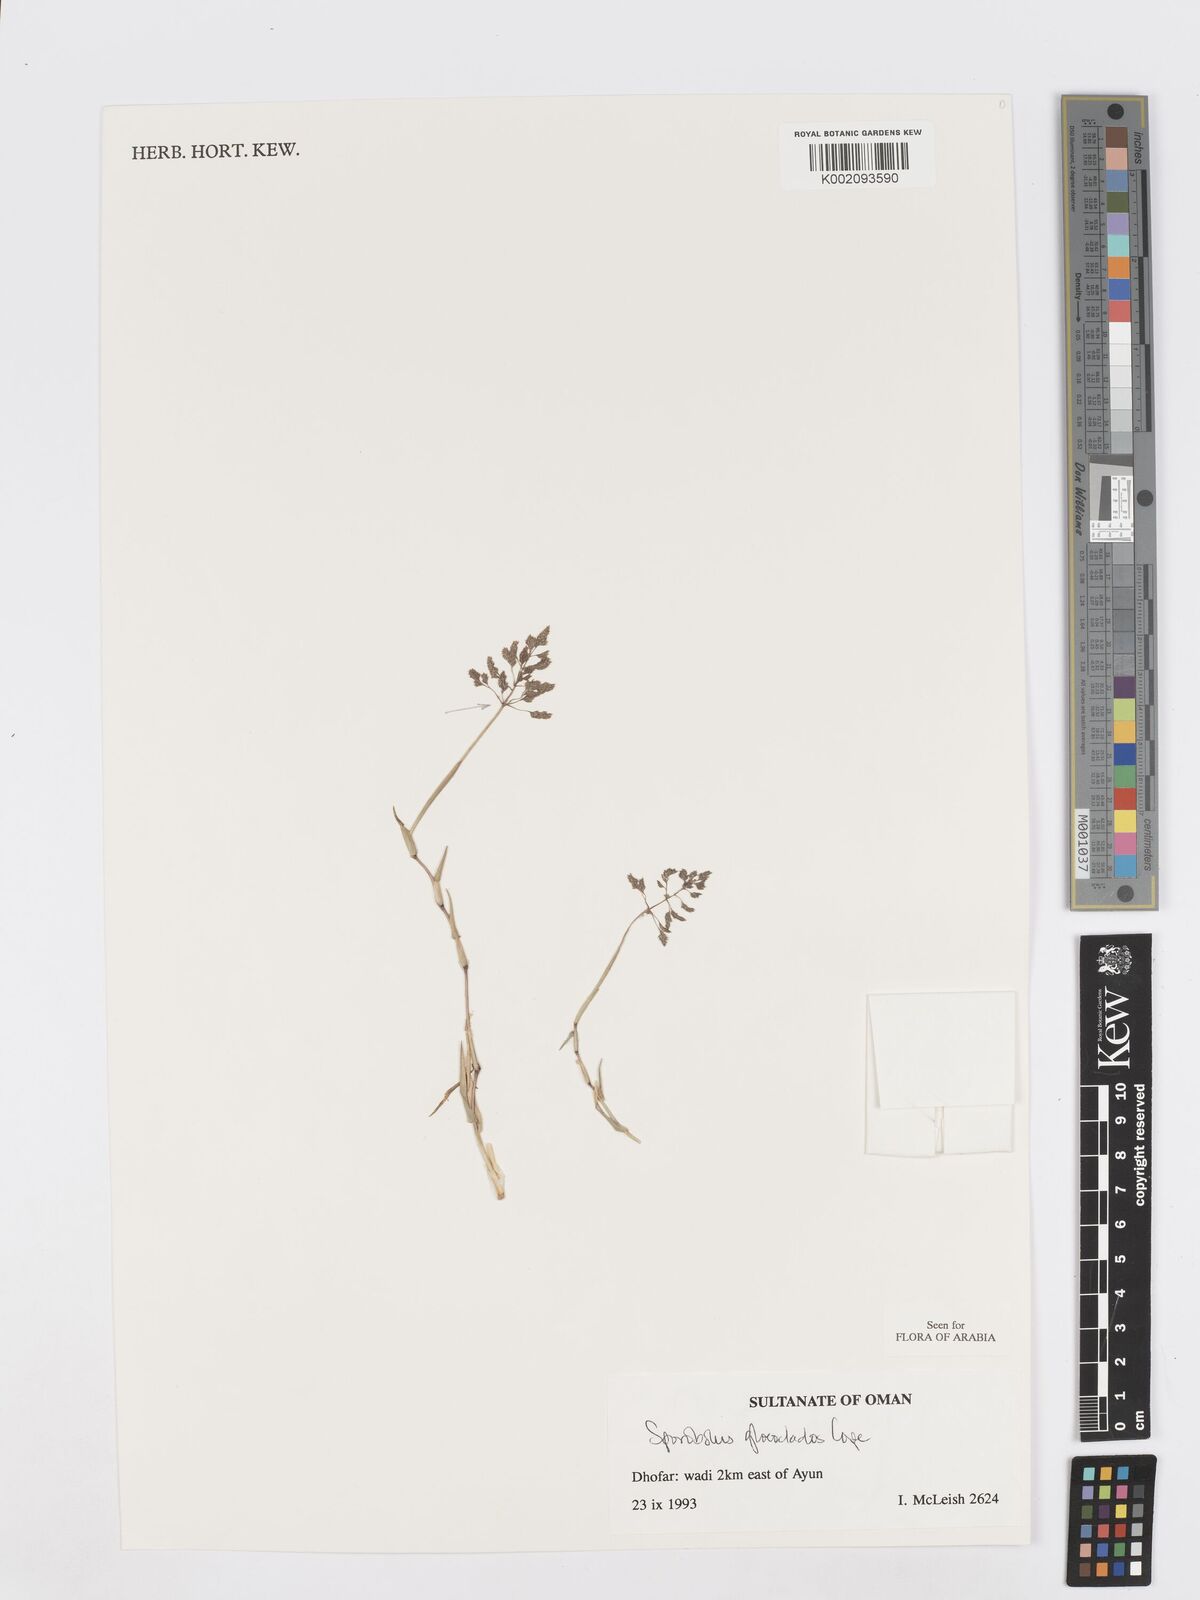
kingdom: Plantae
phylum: Tracheophyta
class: Liliopsida
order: Poales
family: Poaceae
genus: Sporobolus
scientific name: Sporobolus gloeoclados
